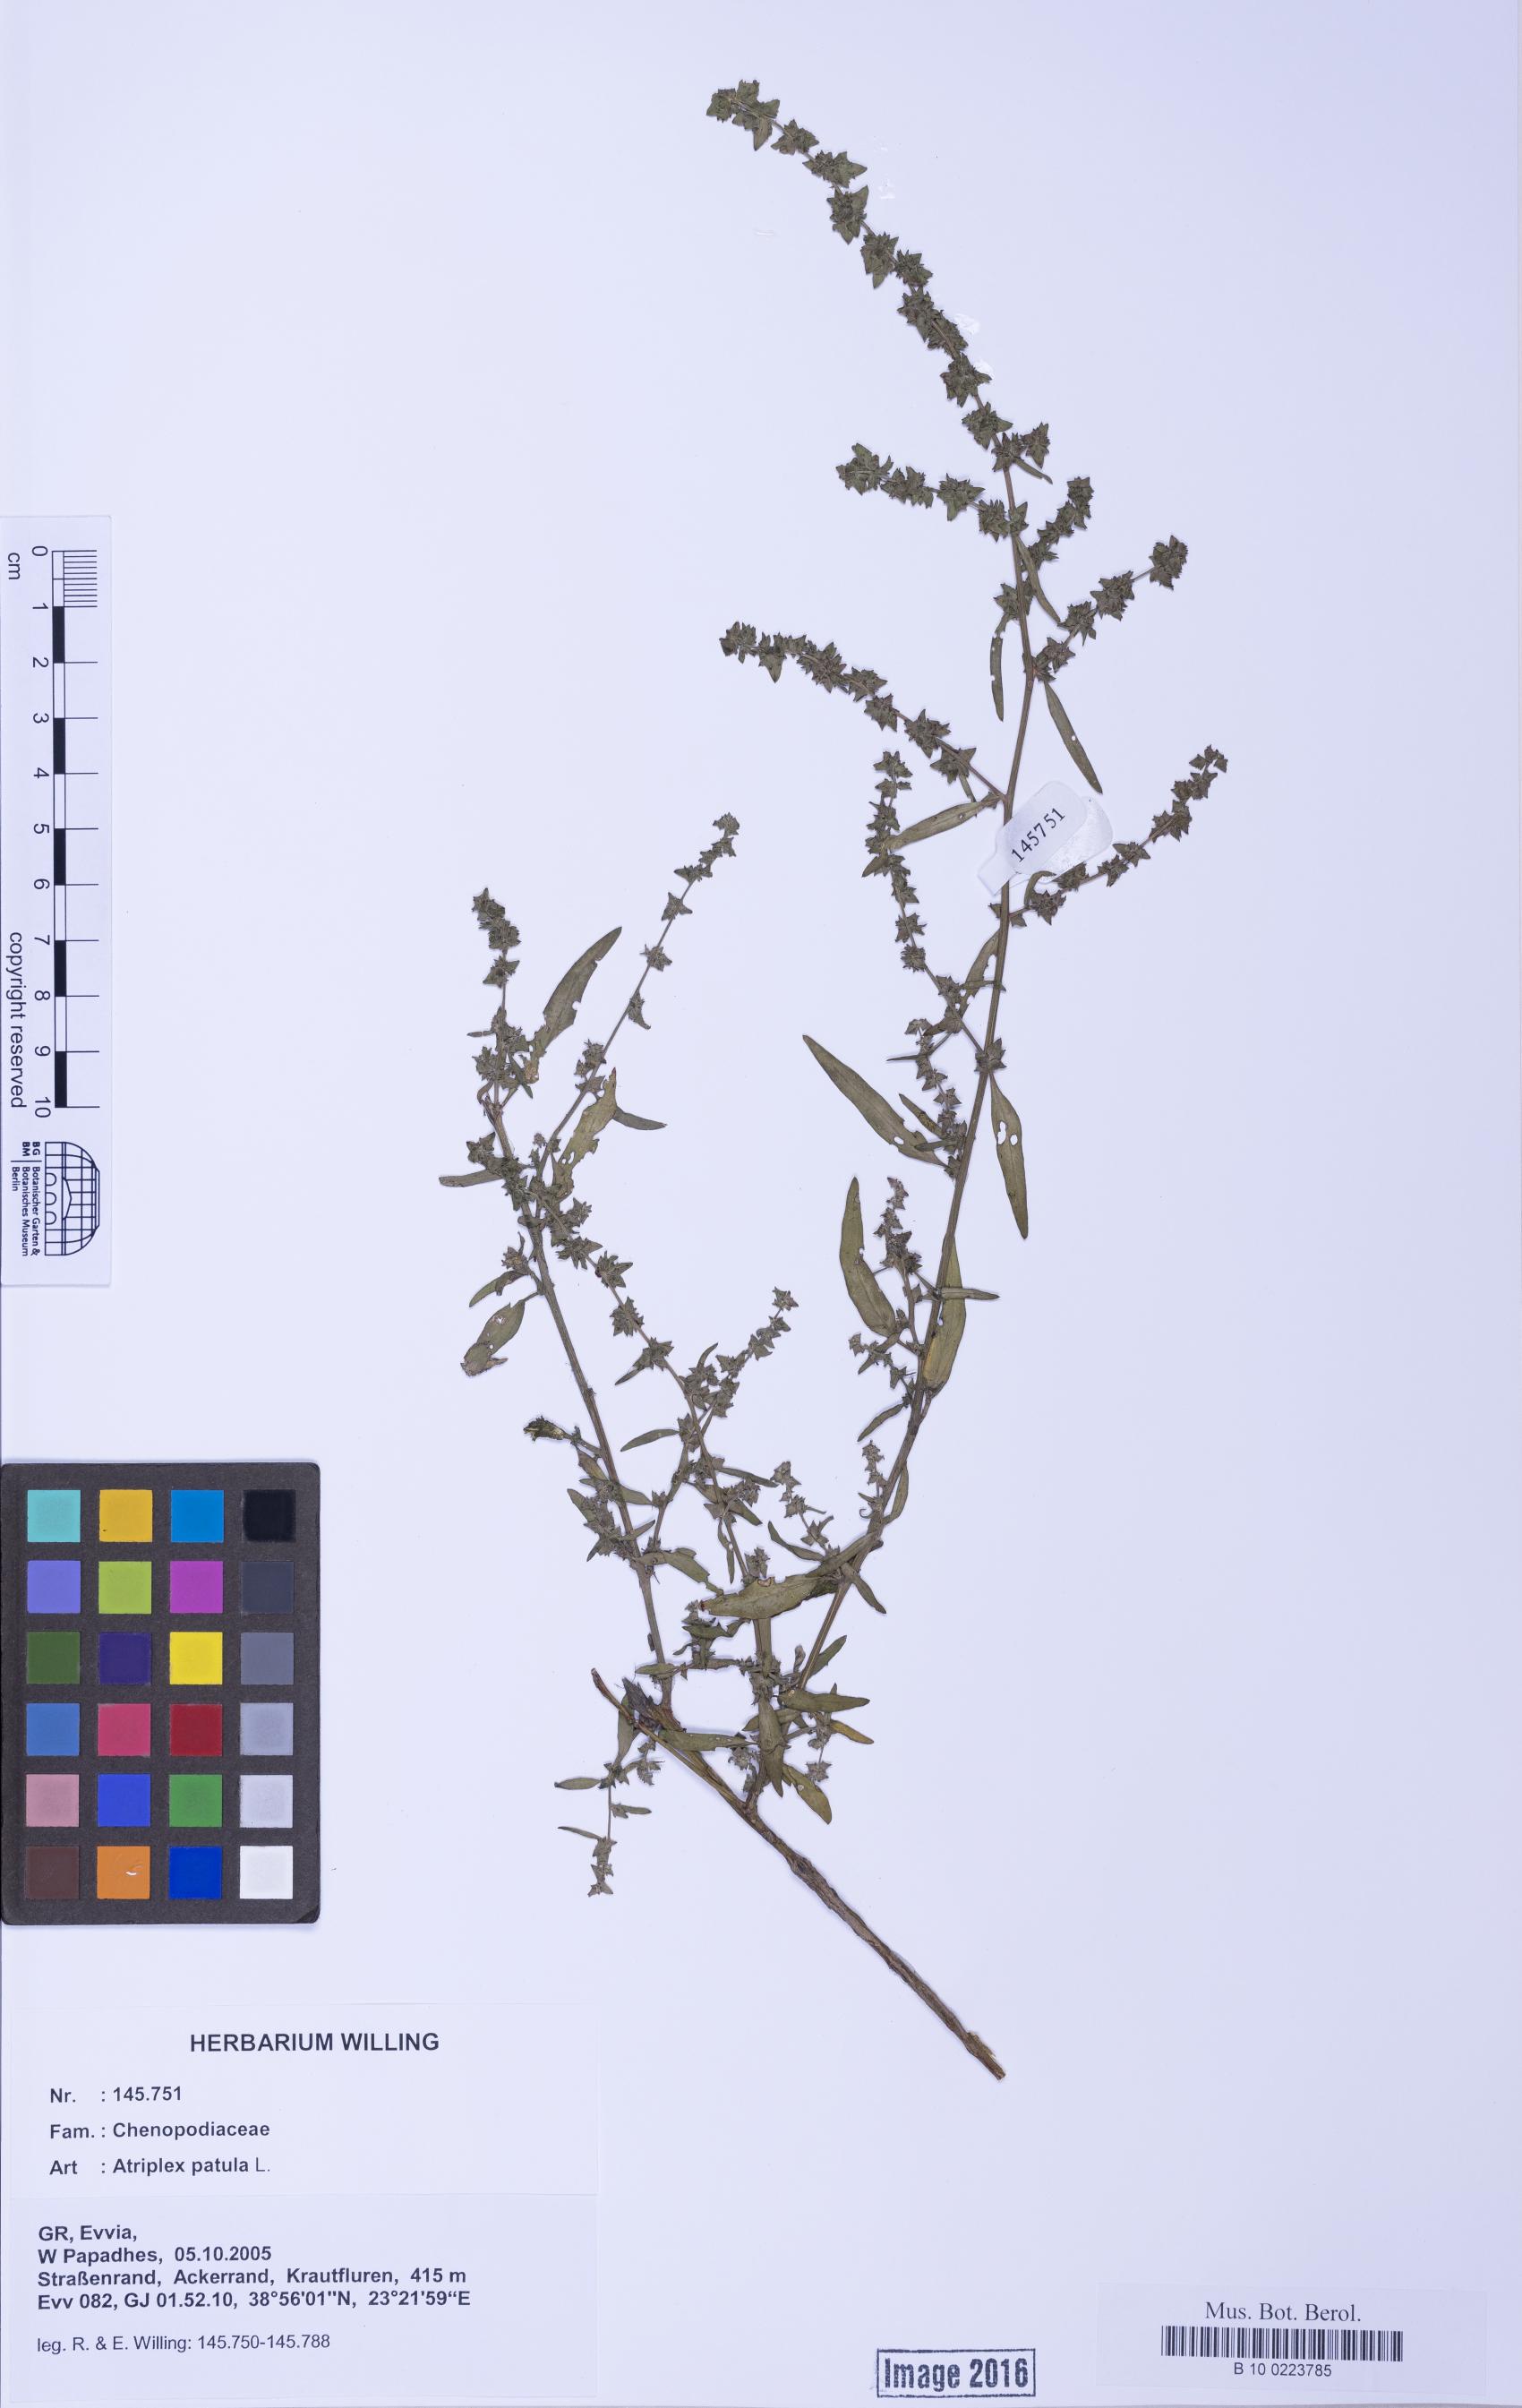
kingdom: Plantae
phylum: Tracheophyta
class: Magnoliopsida
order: Caryophyllales
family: Amaranthaceae
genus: Atriplex
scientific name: Atriplex patula
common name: Common orache
